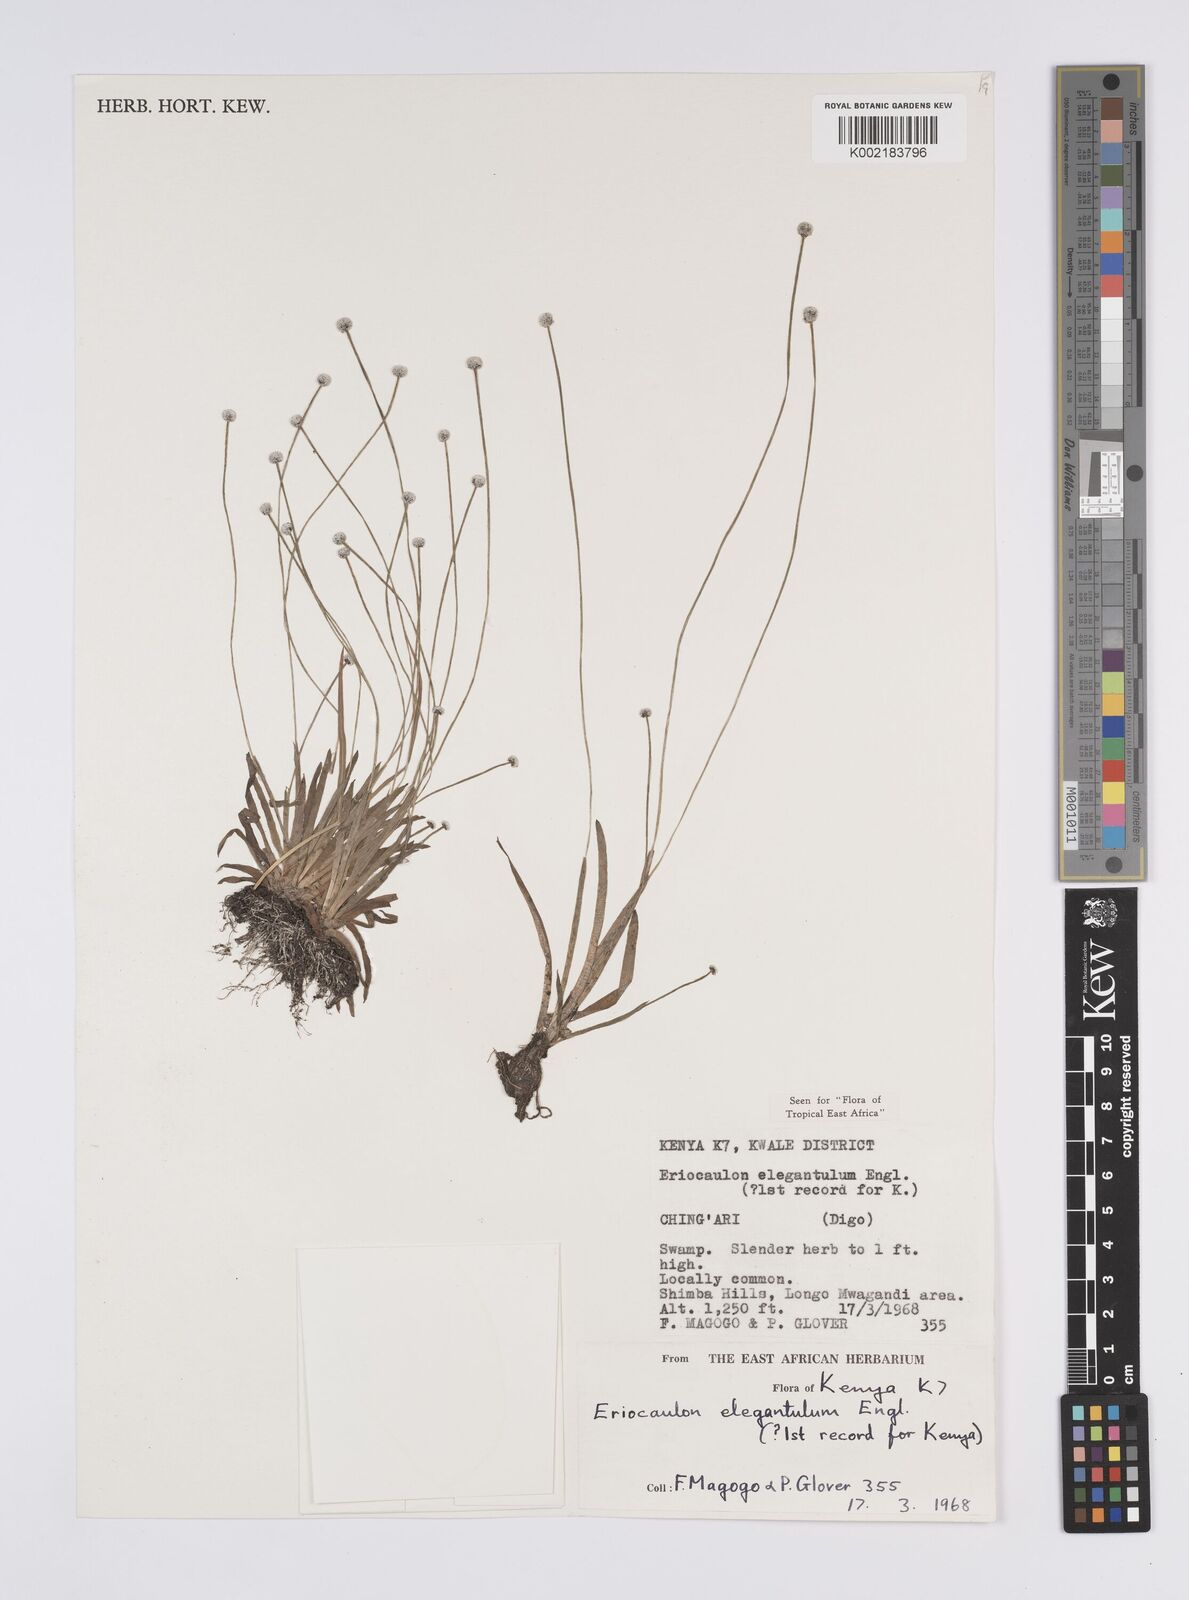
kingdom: Plantae
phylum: Tracheophyta
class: Liliopsida
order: Poales
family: Eriocaulaceae
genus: Eriocaulon
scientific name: Eriocaulon elegantulum
